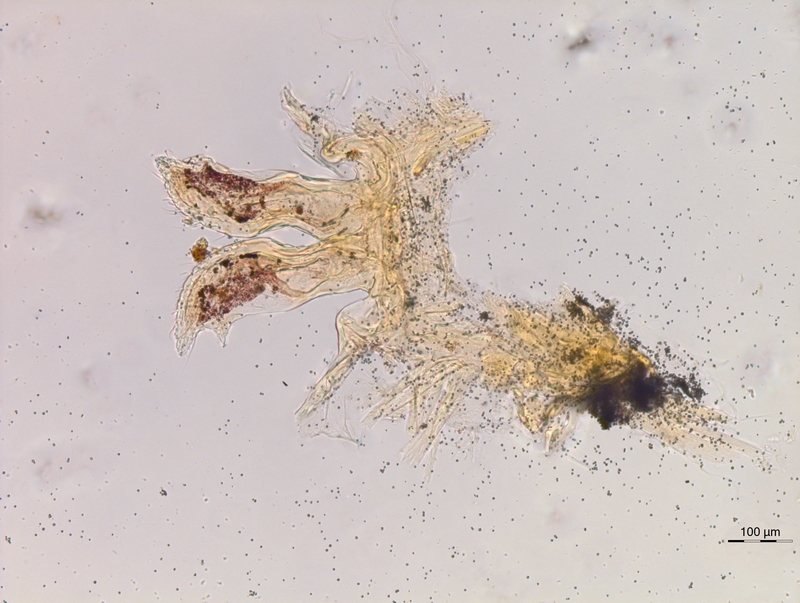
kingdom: Animalia
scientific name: Animalia
